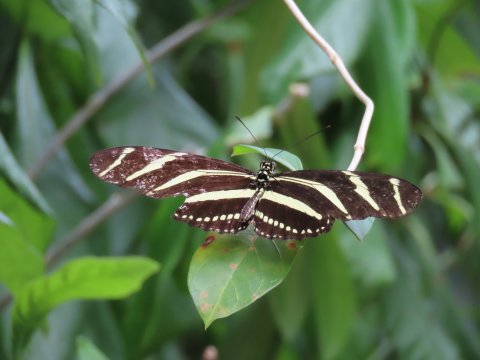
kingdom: Animalia
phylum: Arthropoda
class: Insecta
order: Lepidoptera
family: Nymphalidae
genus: Heliconius
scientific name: Heliconius charithonia
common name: Zebra Longwing
